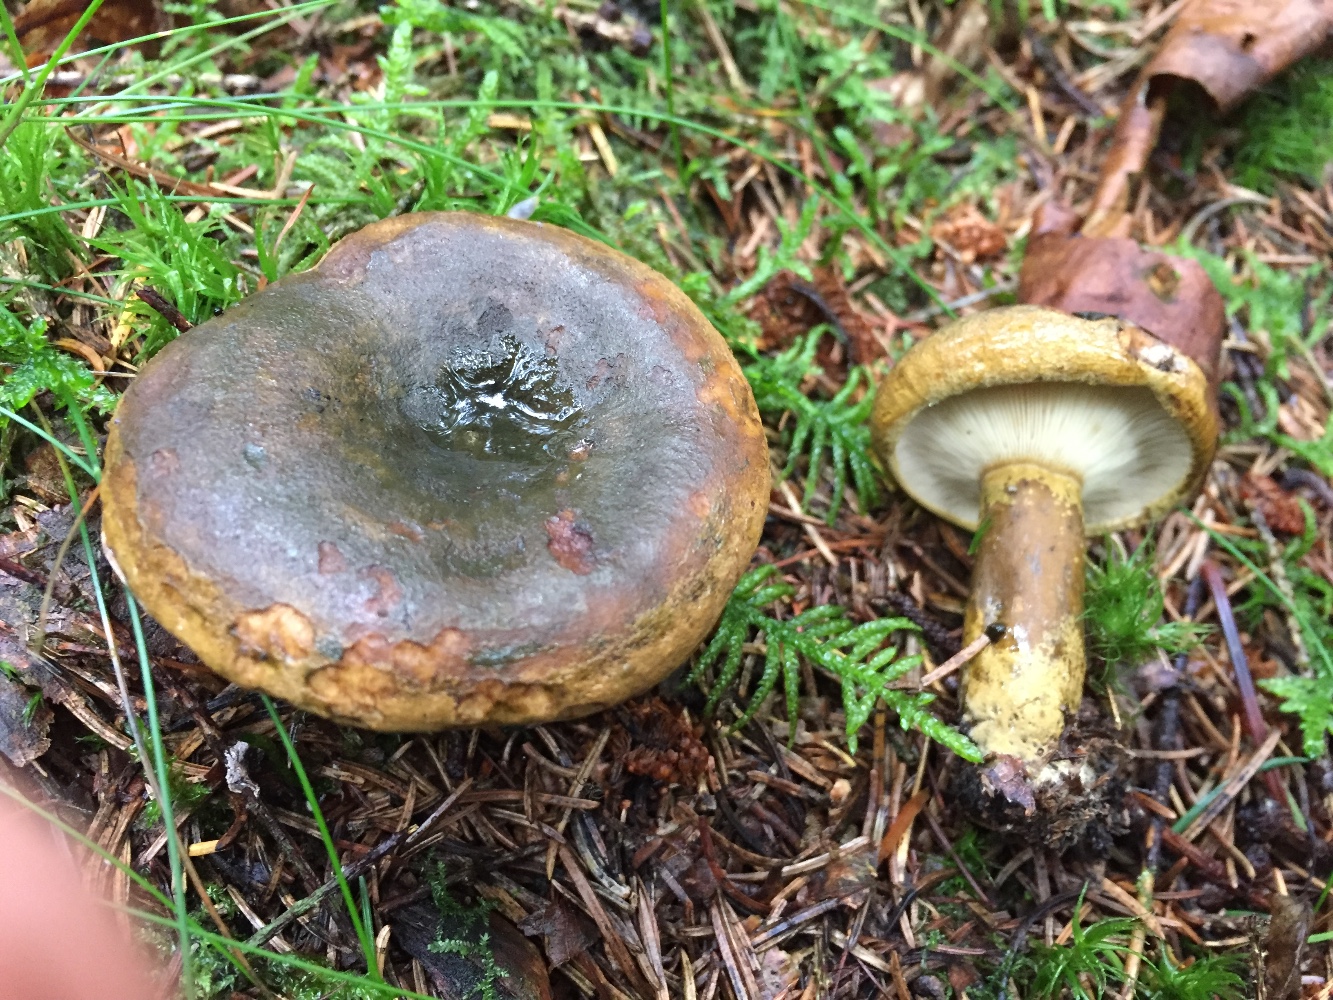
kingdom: Fungi
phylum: Basidiomycota
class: Agaricomycetes
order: Russulales
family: Russulaceae
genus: Lactarius
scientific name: Lactarius necator
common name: manddraber-mælkehat
